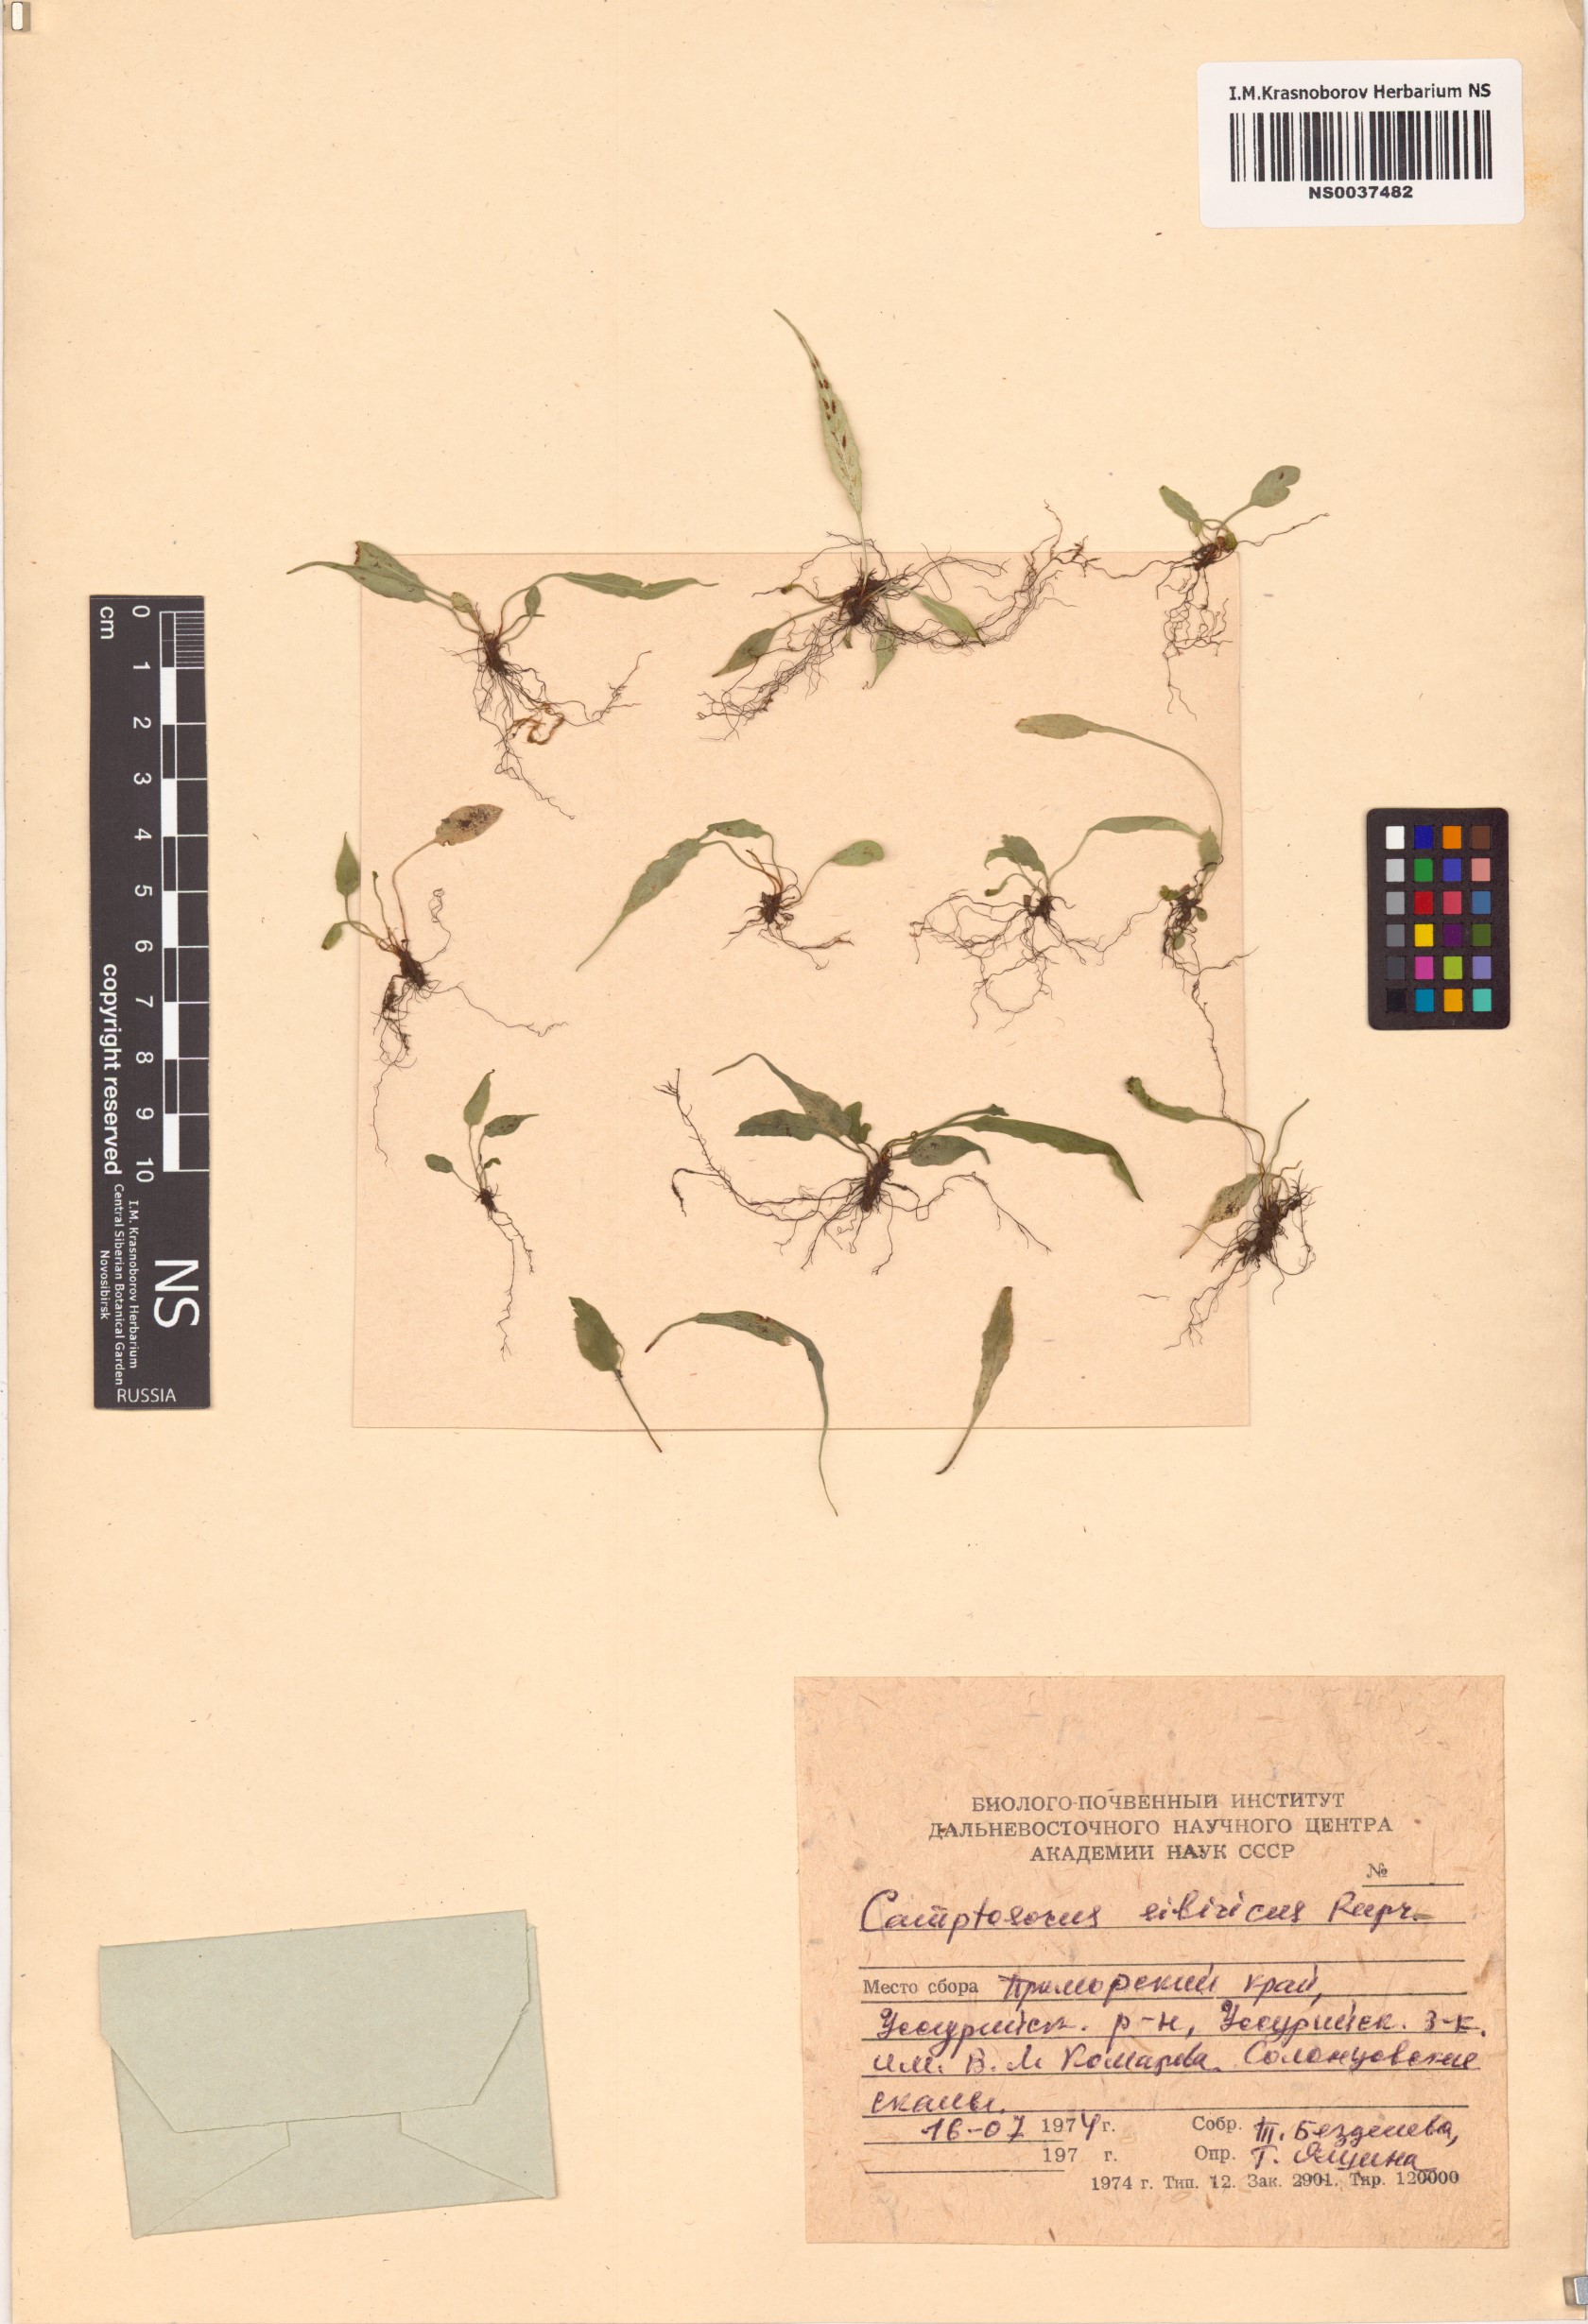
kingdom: Plantae
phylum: Tracheophyta
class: Polypodiopsida
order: Polypodiales
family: Aspleniaceae
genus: Asplenium
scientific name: Asplenium ruprechtii
